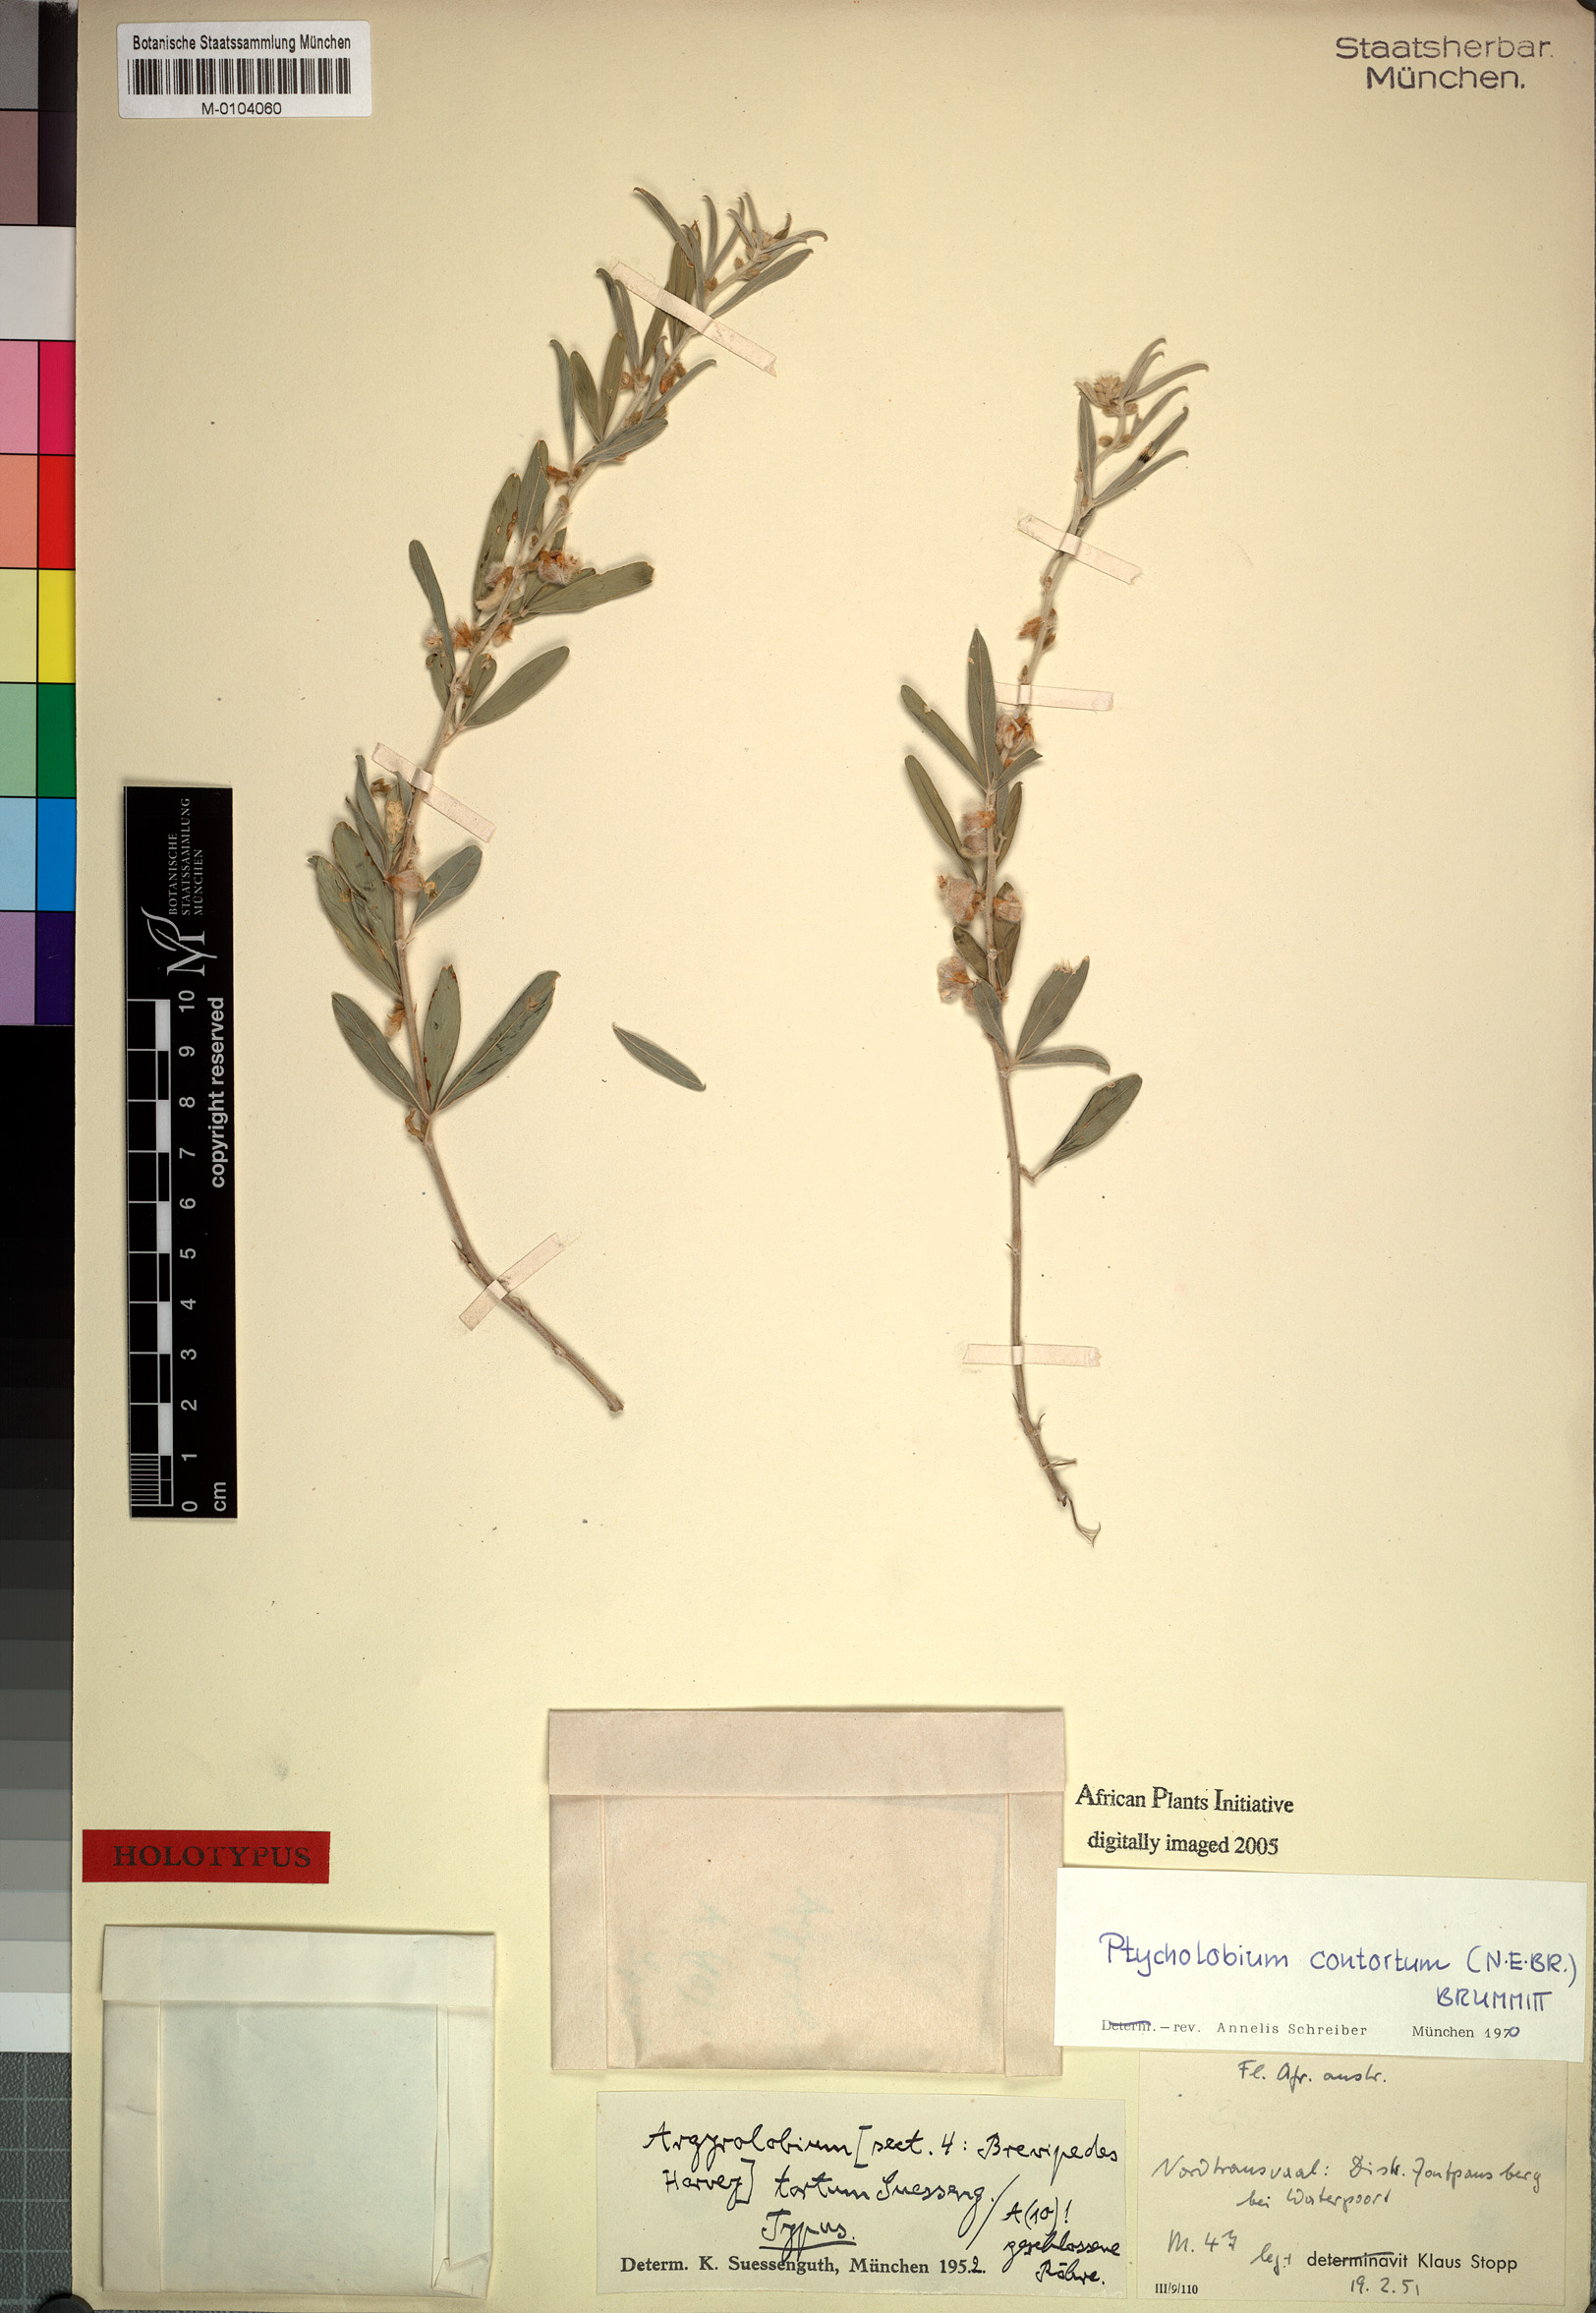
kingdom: Plantae
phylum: Tracheophyta
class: Magnoliopsida
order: Fabales
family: Fabaceae
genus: Ptycholobium
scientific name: Ptycholobium contortum
